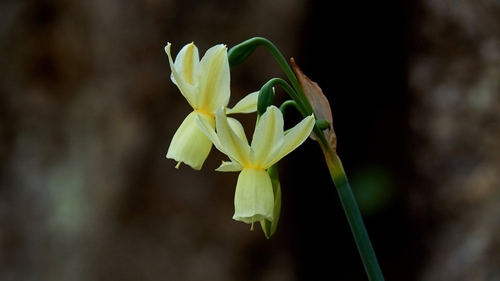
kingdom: Plantae
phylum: Tracheophyta
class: Liliopsida
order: Asparagales
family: Amaryllidaceae
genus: Narcissus
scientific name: Narcissus triandrus
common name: Angel's-tears
